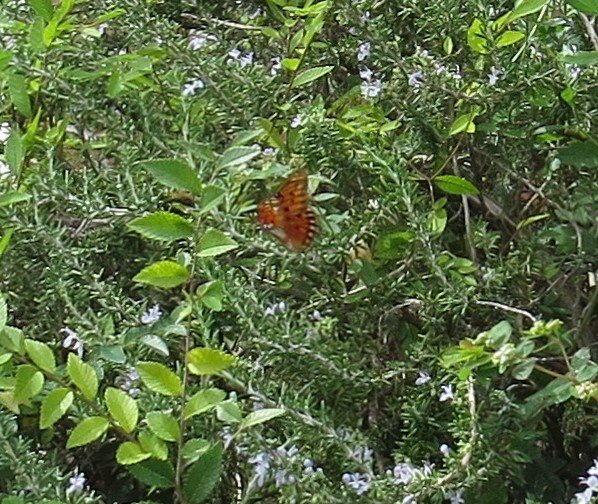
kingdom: Animalia
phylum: Arthropoda
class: Insecta
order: Lepidoptera
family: Nymphalidae
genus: Dione
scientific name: Dione vanillae
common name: Gulf Fritillary
